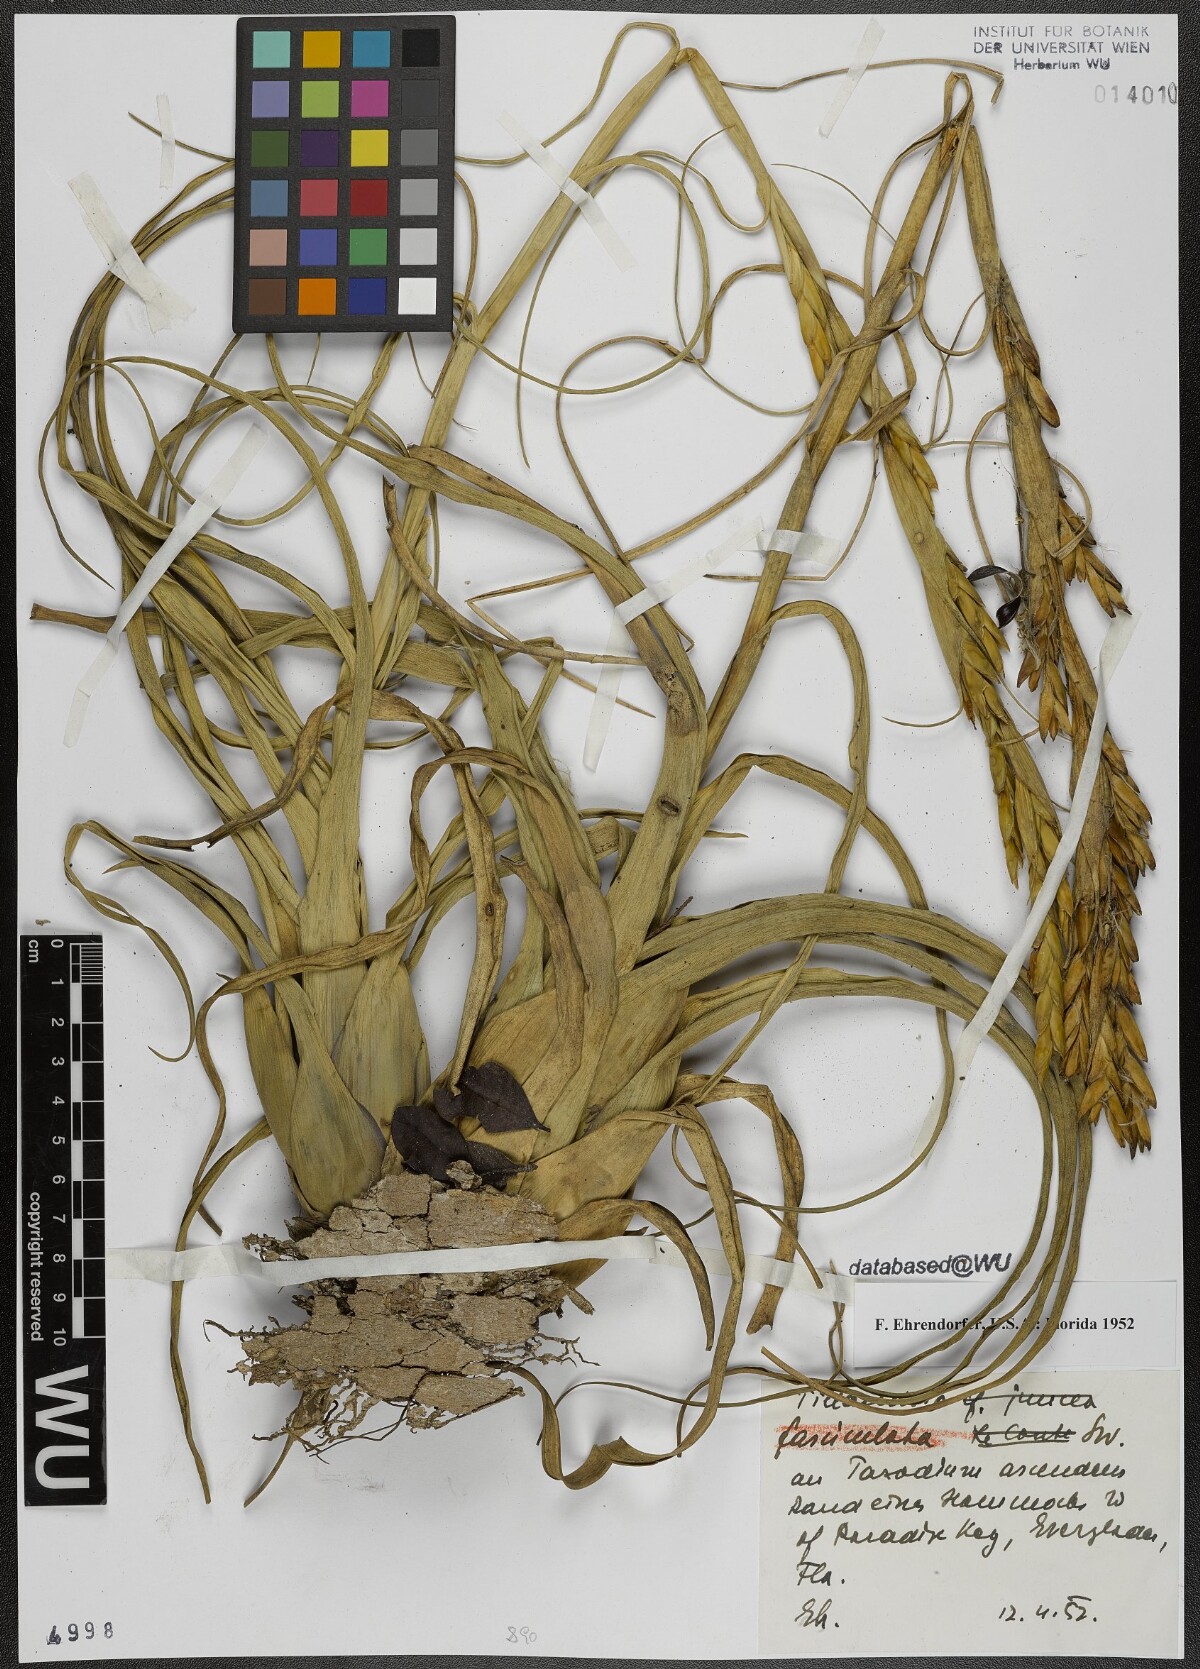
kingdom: Plantae
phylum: Tracheophyta
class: Liliopsida
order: Poales
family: Bromeliaceae
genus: Tillandsia
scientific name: Tillandsia fasciculata
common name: Giant airplant
